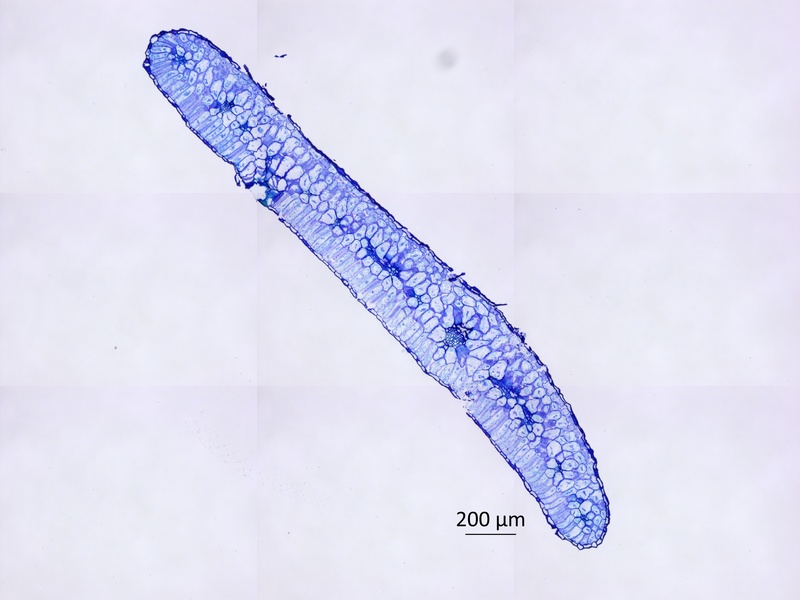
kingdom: Plantae
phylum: Tracheophyta
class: Magnoliopsida
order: Zygophyllales
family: Zygophyllaceae
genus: Tribulopis
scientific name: Tribulopis pentandra
